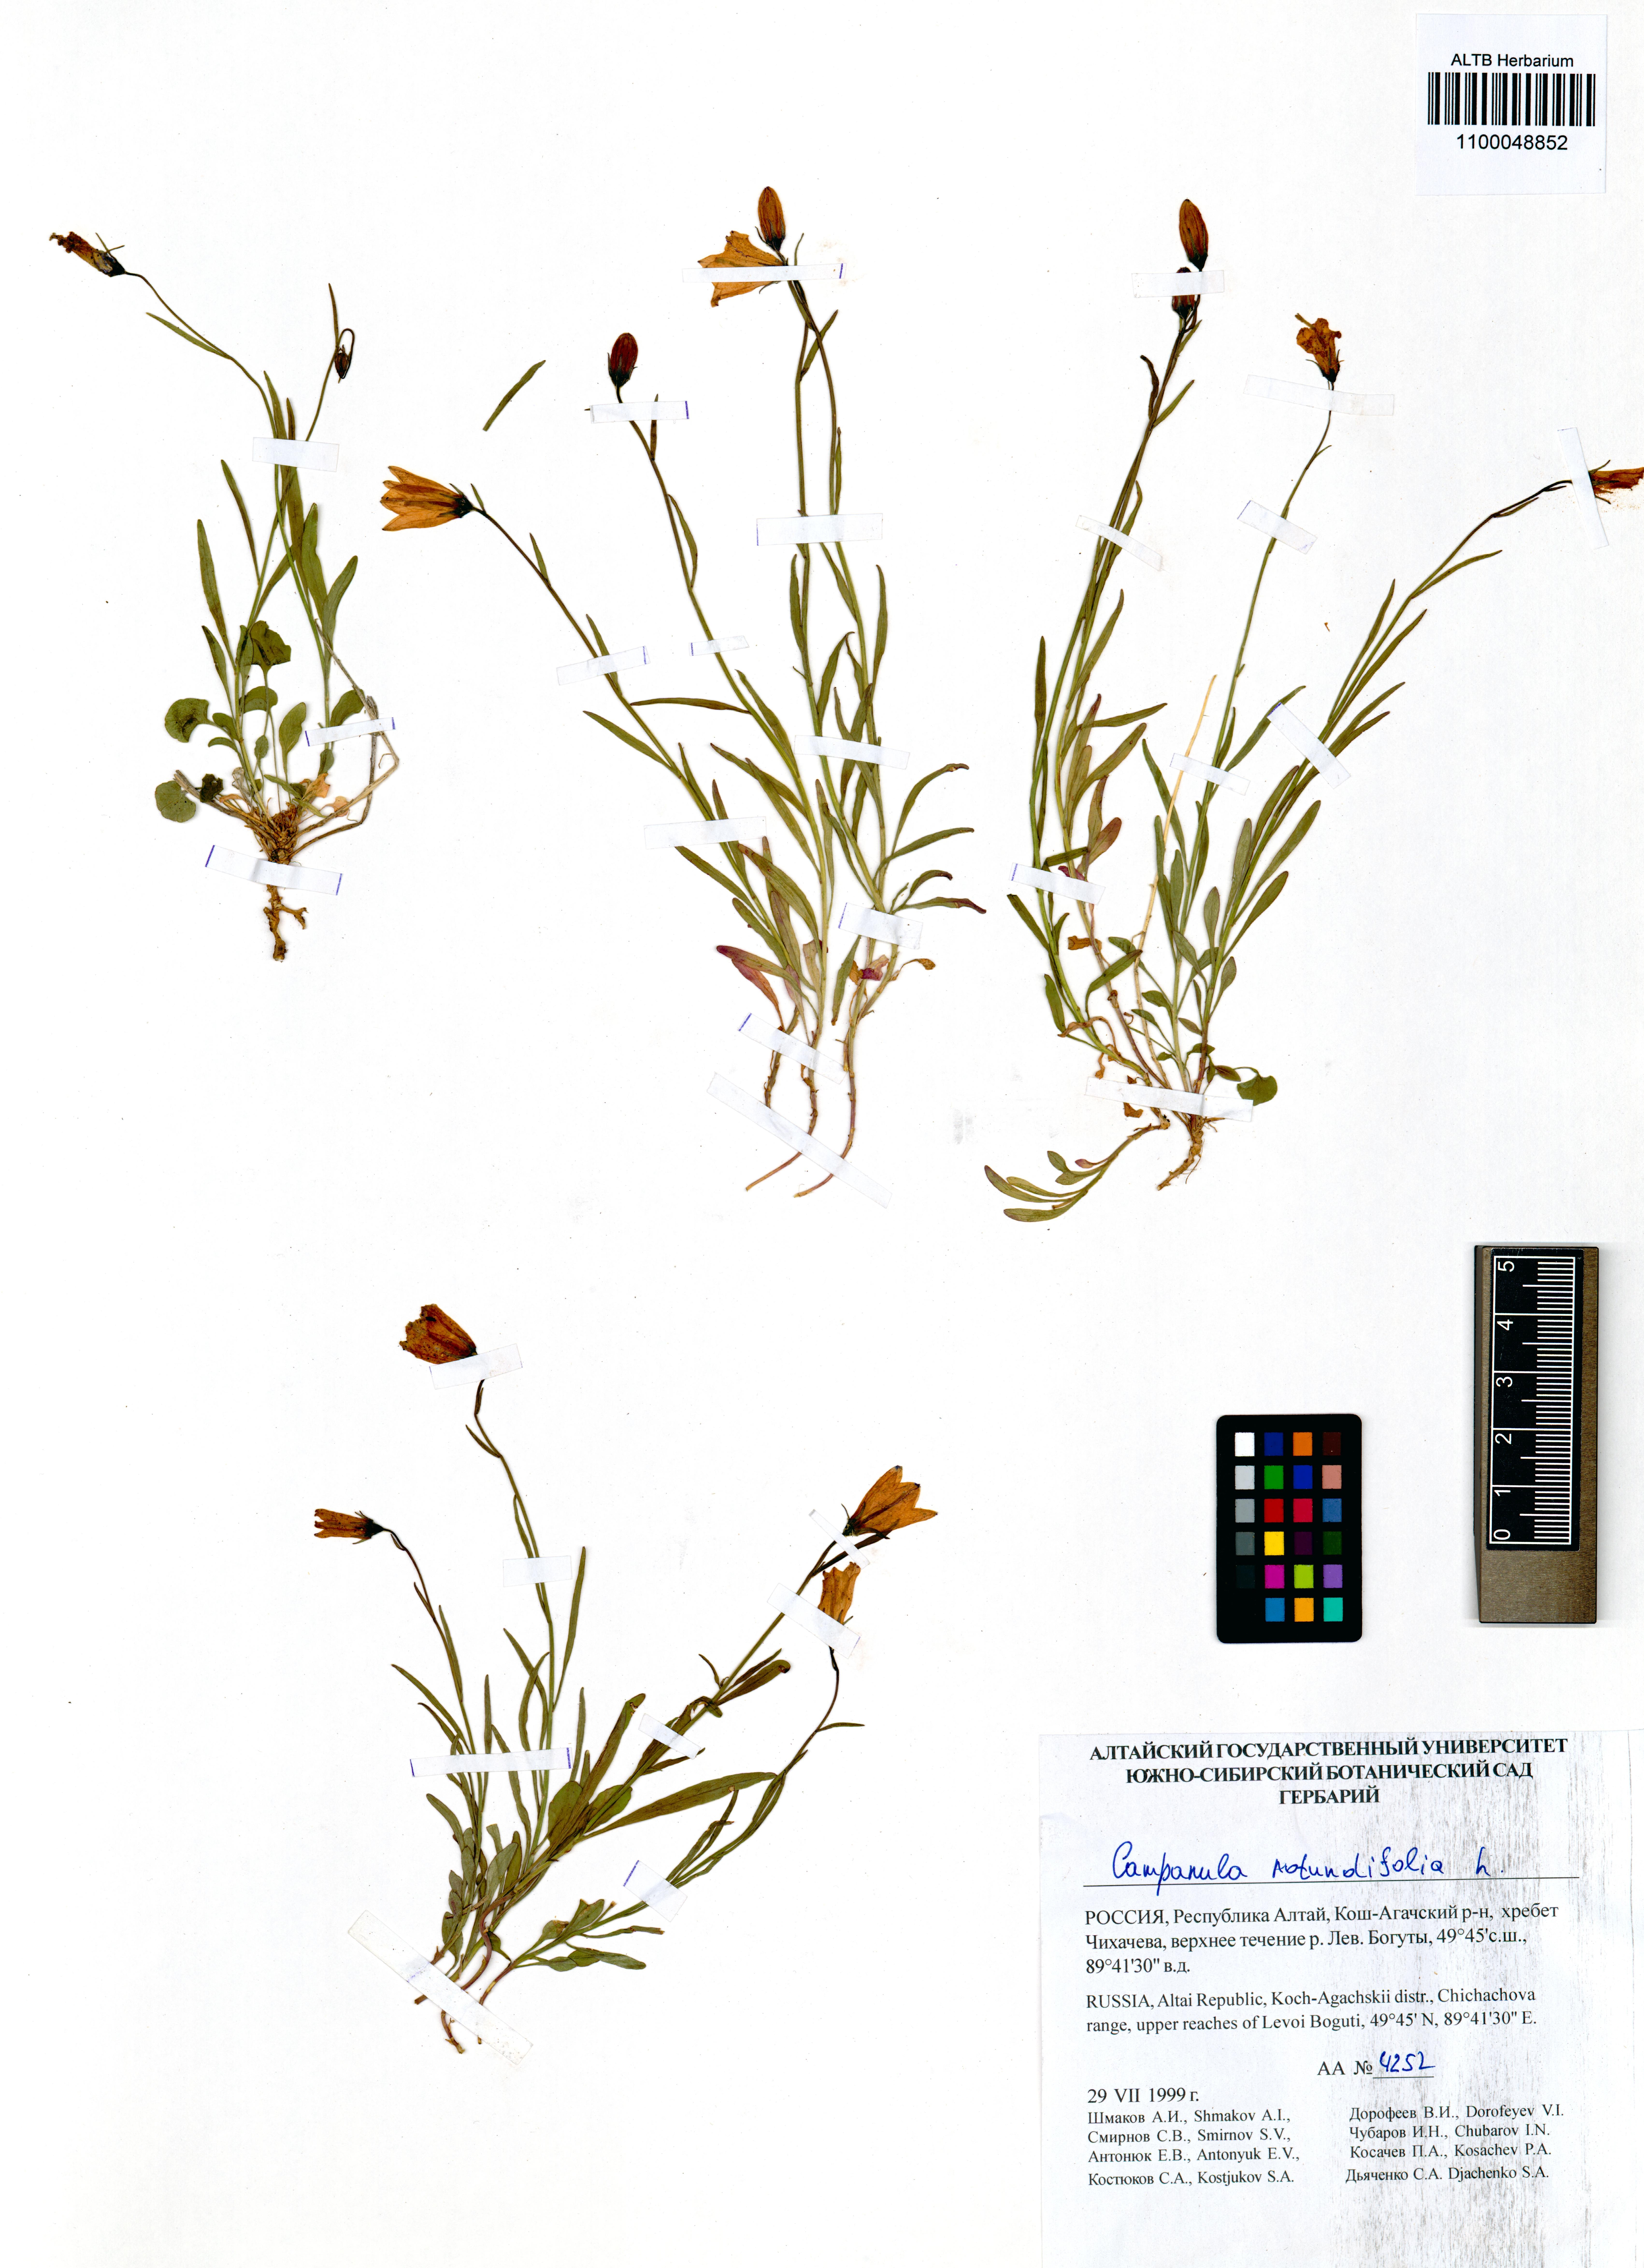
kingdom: Plantae
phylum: Tracheophyta
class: Magnoliopsida
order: Asterales
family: Campanulaceae
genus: Campanula
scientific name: Campanula rotundifolia
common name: Harebell
